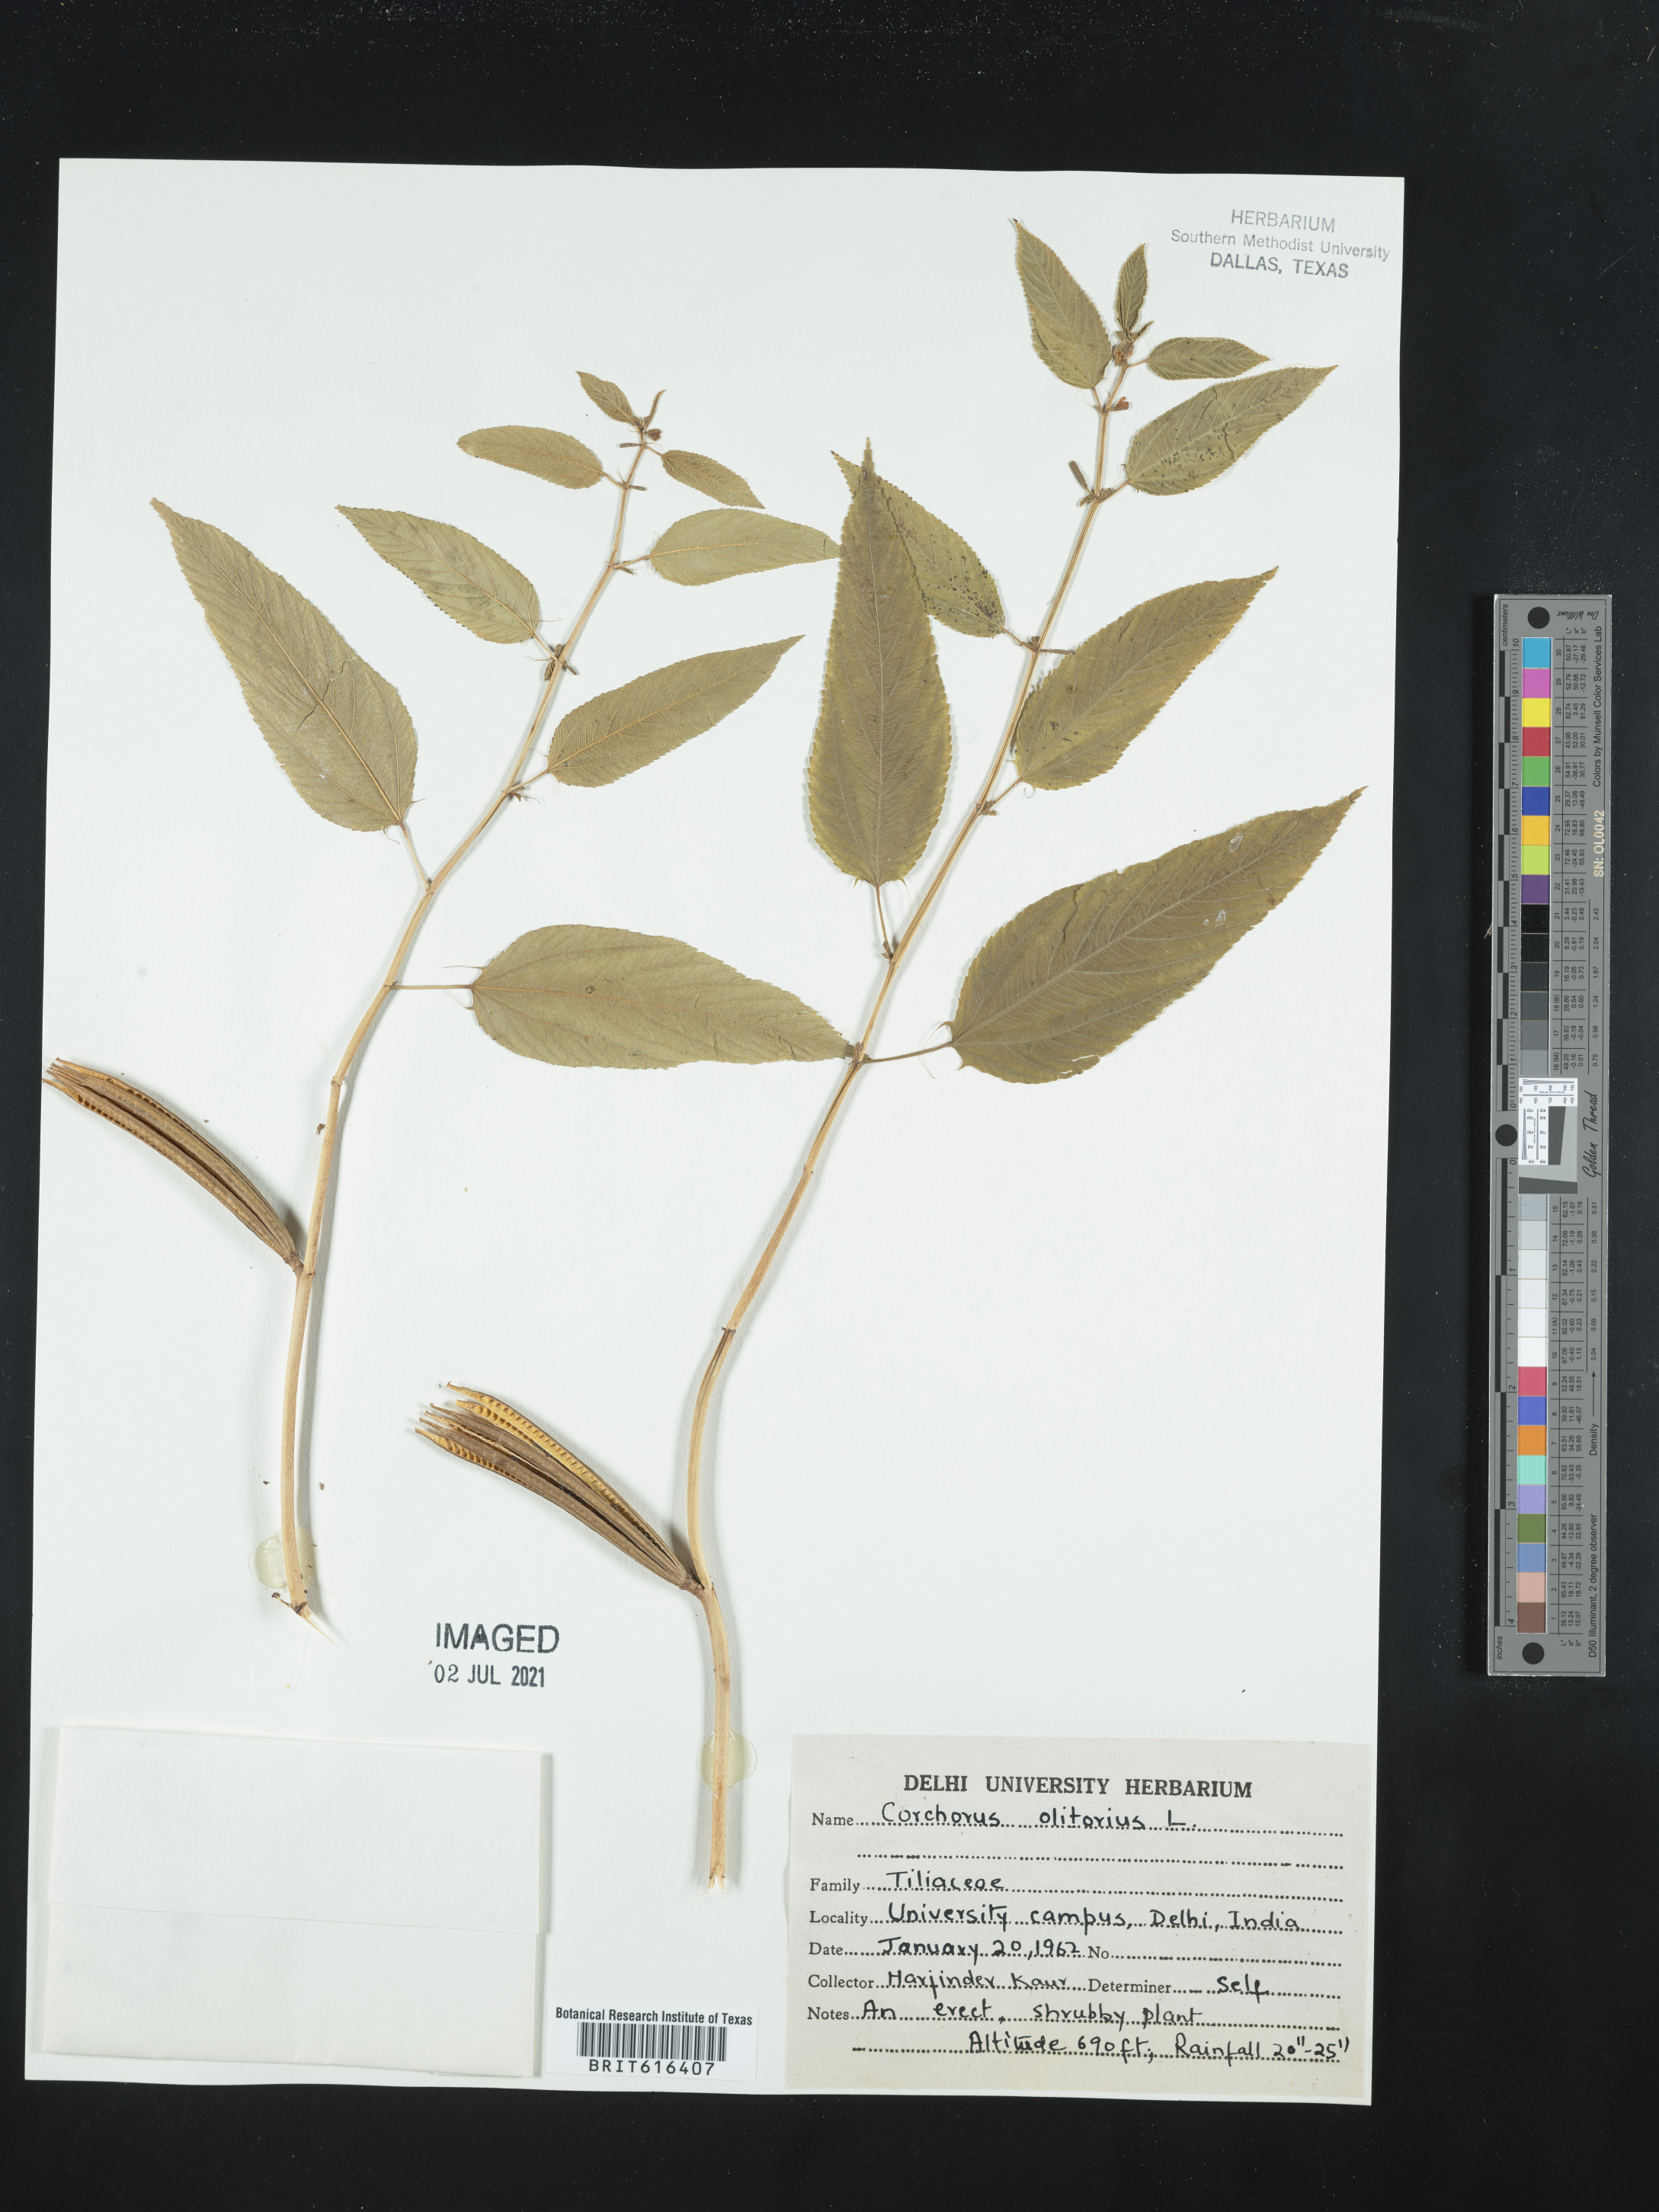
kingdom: Plantae
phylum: Tracheophyta
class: Magnoliopsida
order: Malvales
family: Malvaceae
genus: Corchorus
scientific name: Corchorus olitorius
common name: Tossa jute
